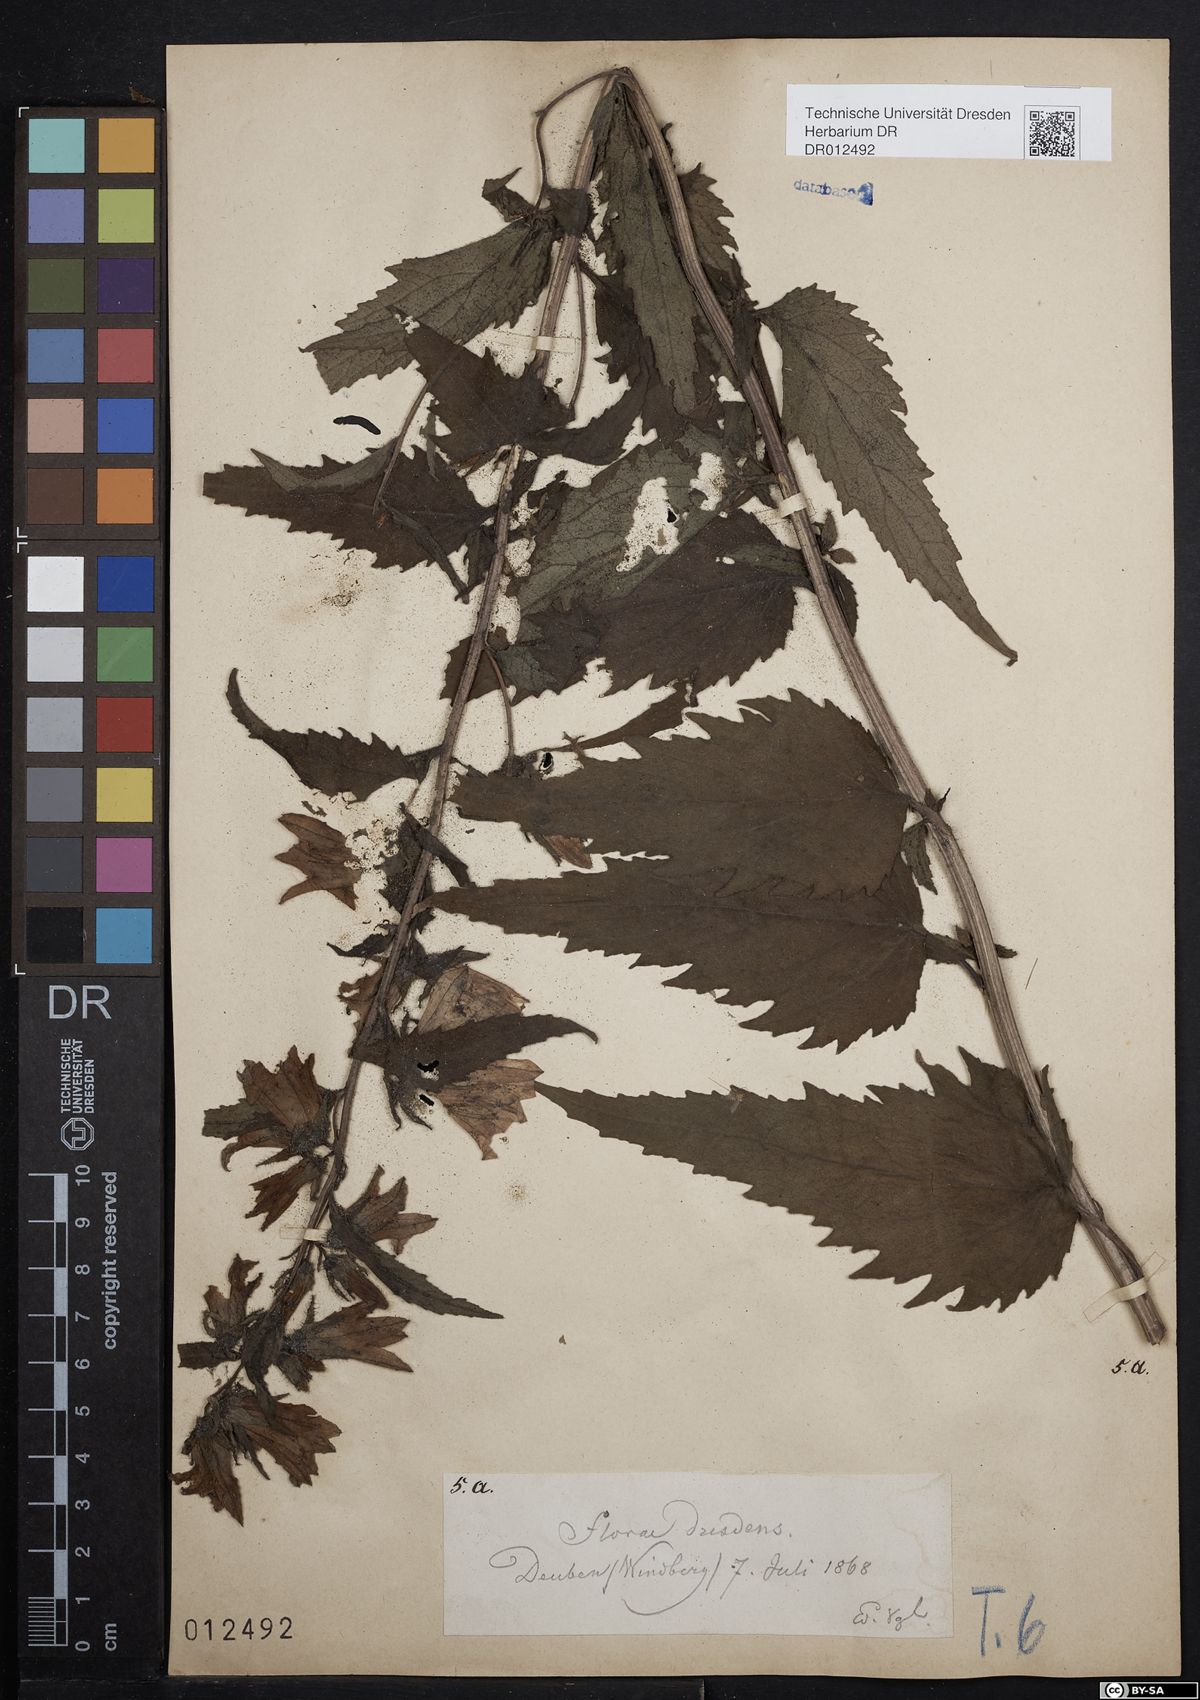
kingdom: Plantae
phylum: Tracheophyta
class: Magnoliopsida
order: Asterales
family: Campanulaceae
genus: Campanula
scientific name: Campanula trachelium
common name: Nettle-leaved bellflower
